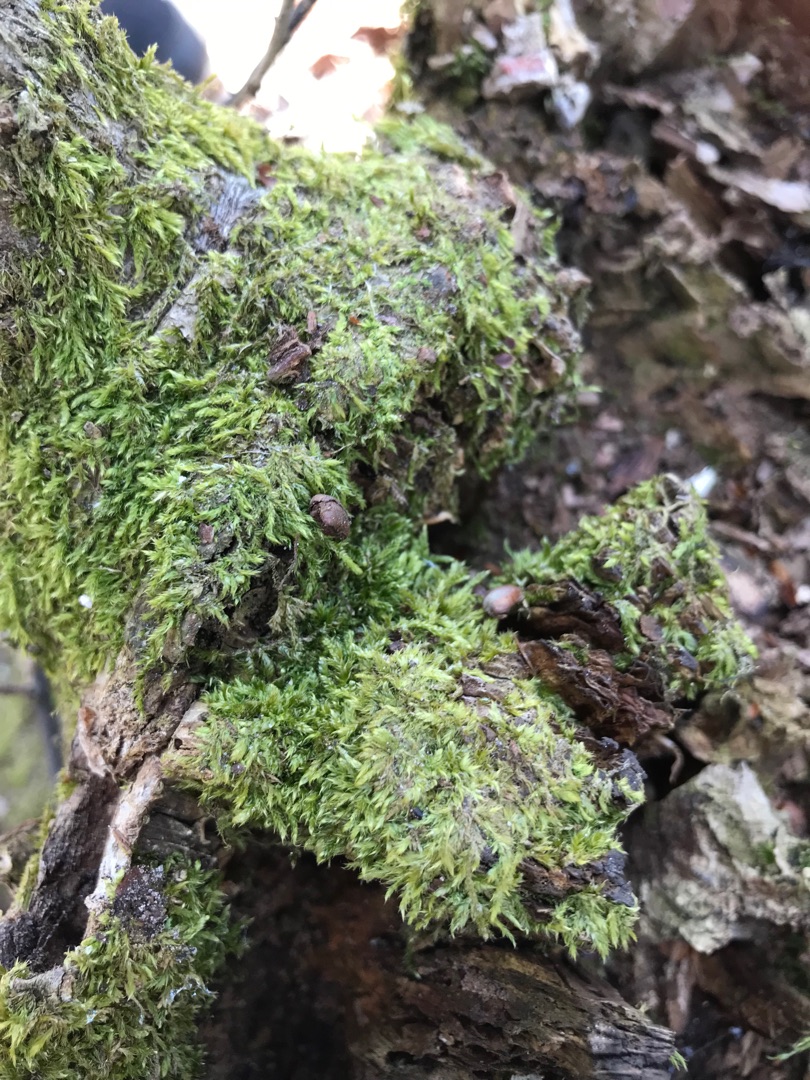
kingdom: Plantae
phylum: Bryophyta
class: Bryopsida
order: Hypnales
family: Hypnaceae
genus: Hypnum
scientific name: Hypnum
